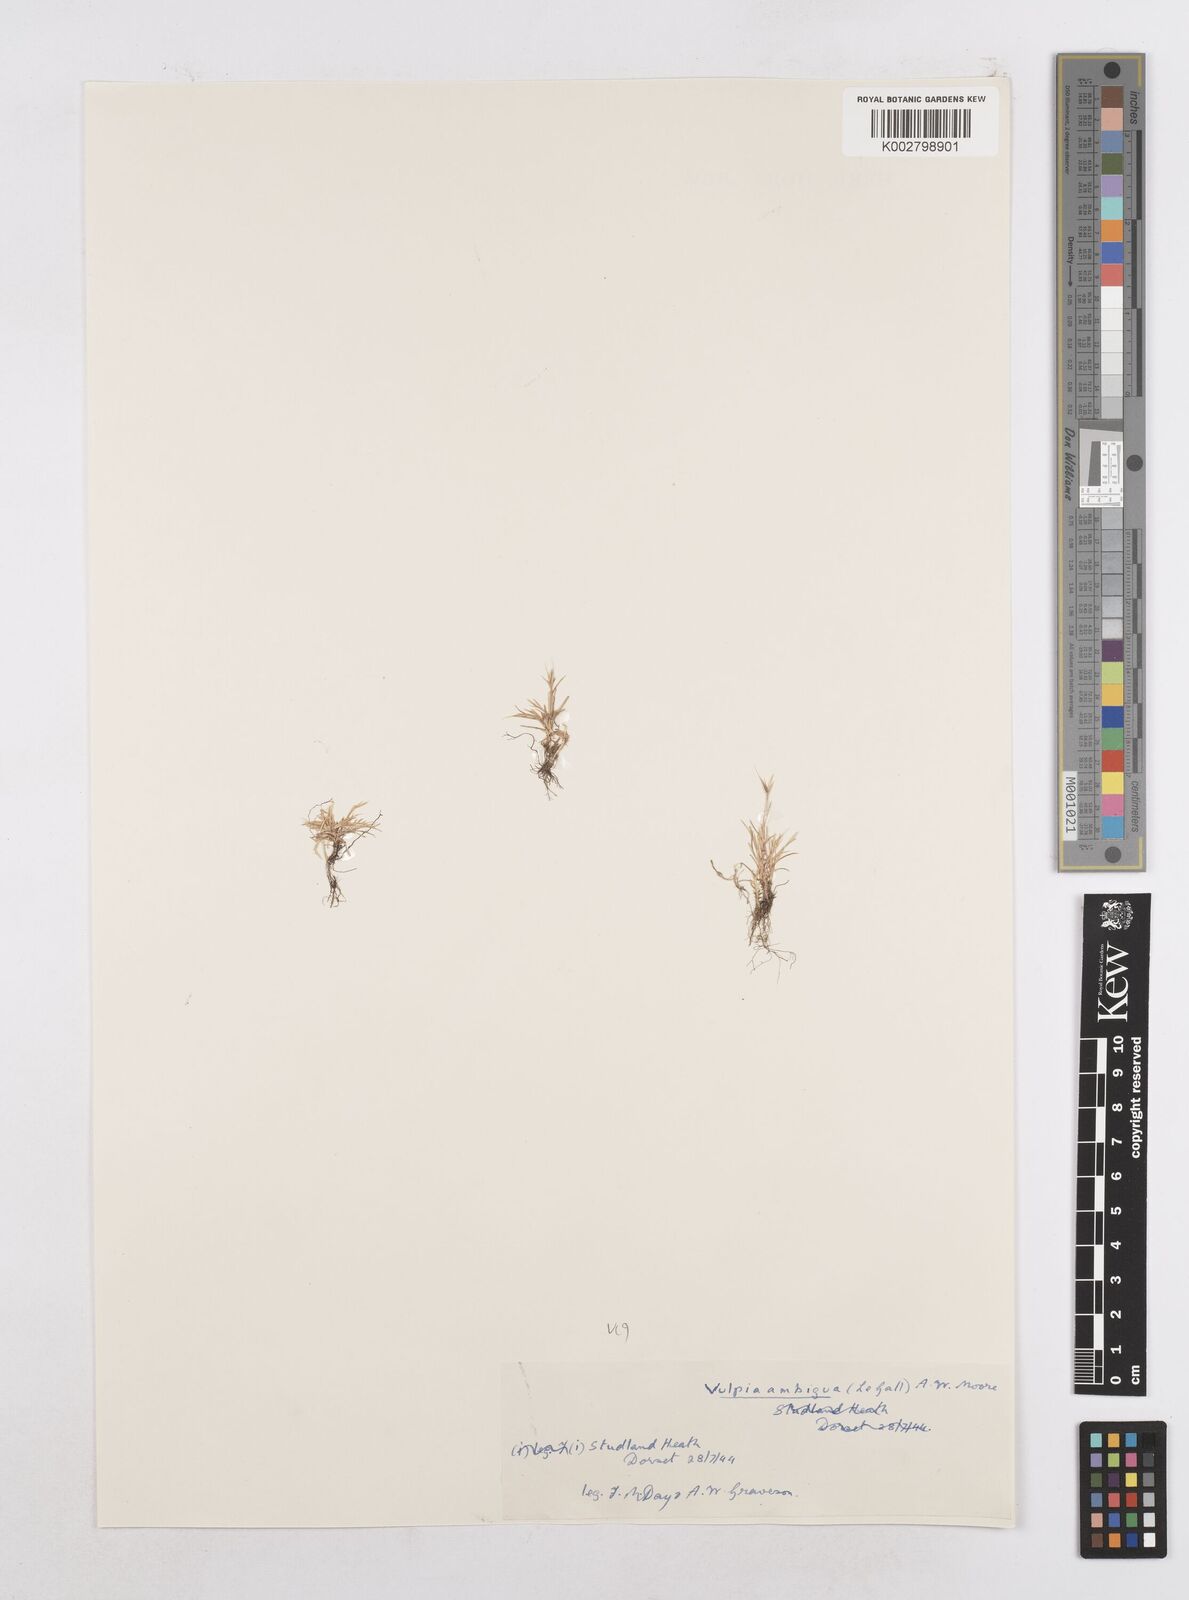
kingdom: Plantae
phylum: Tracheophyta
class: Liliopsida
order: Poales
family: Poaceae
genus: Festuca
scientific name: Festuca bromoides
